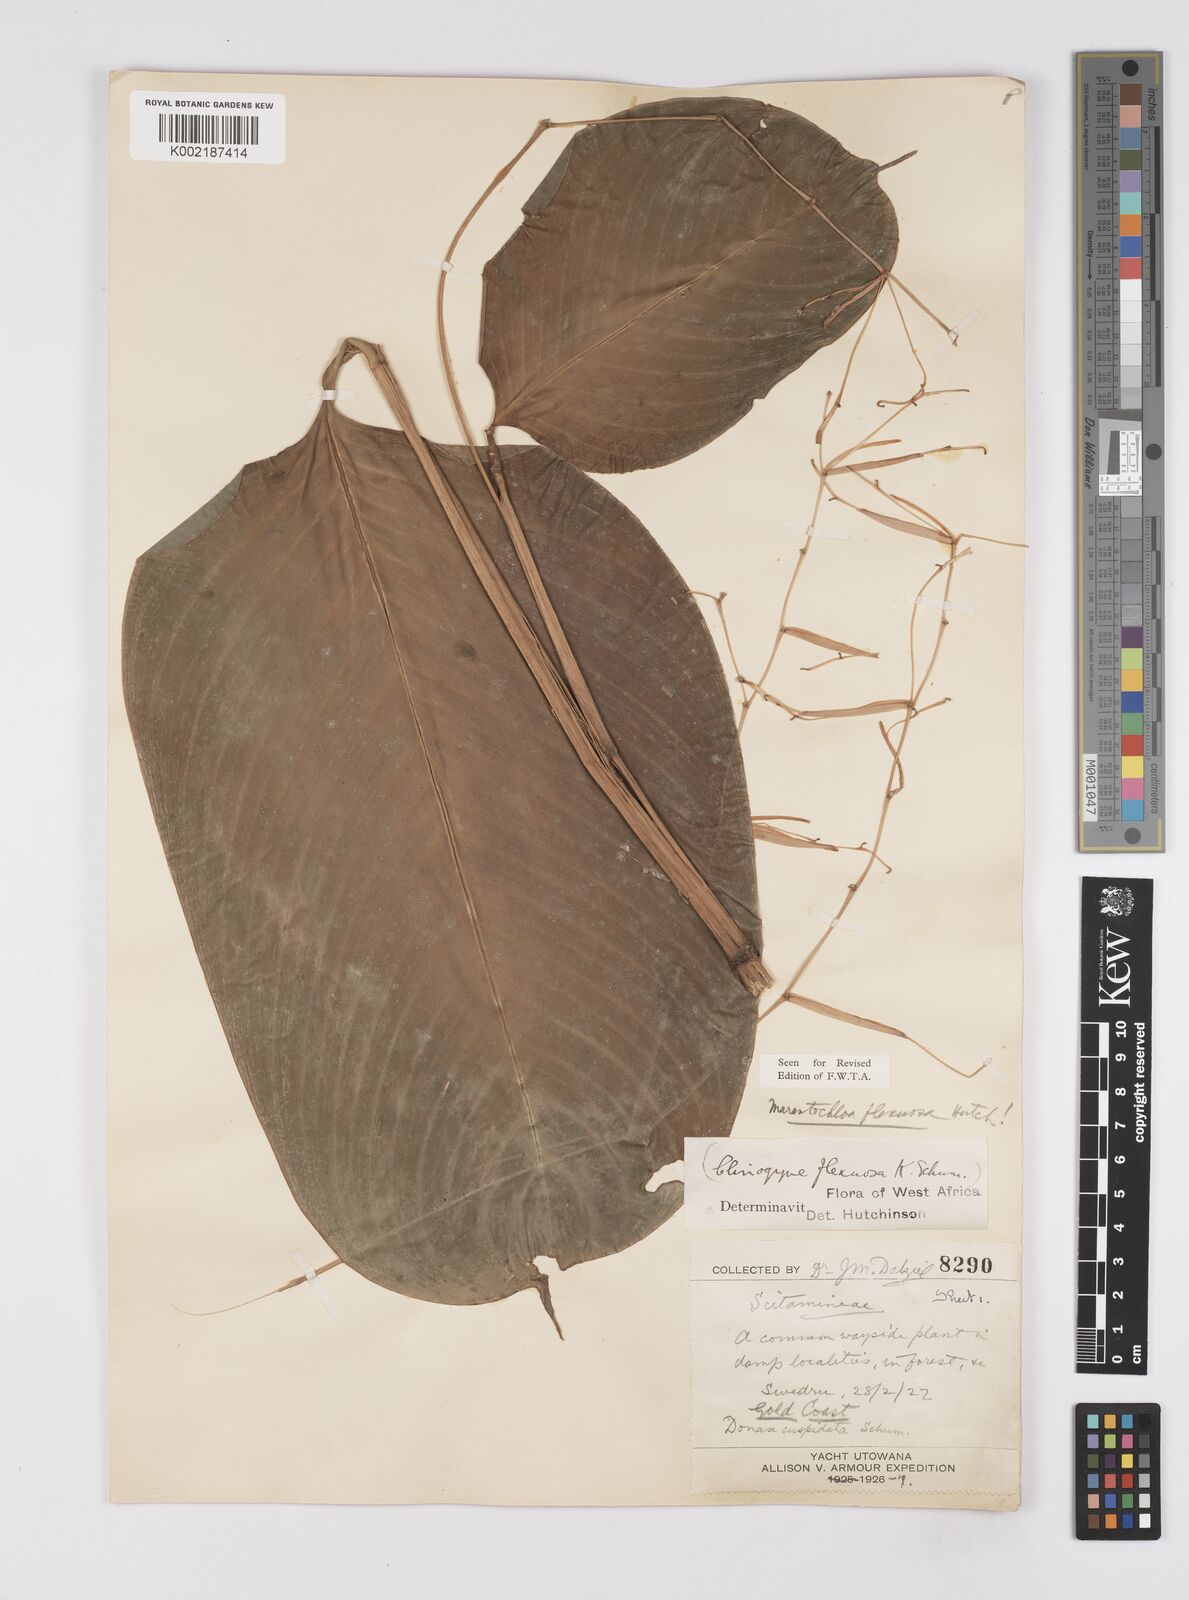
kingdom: Plantae
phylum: Tracheophyta
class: Liliopsida
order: Zingiberales
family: Marantaceae
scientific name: Marantaceae
